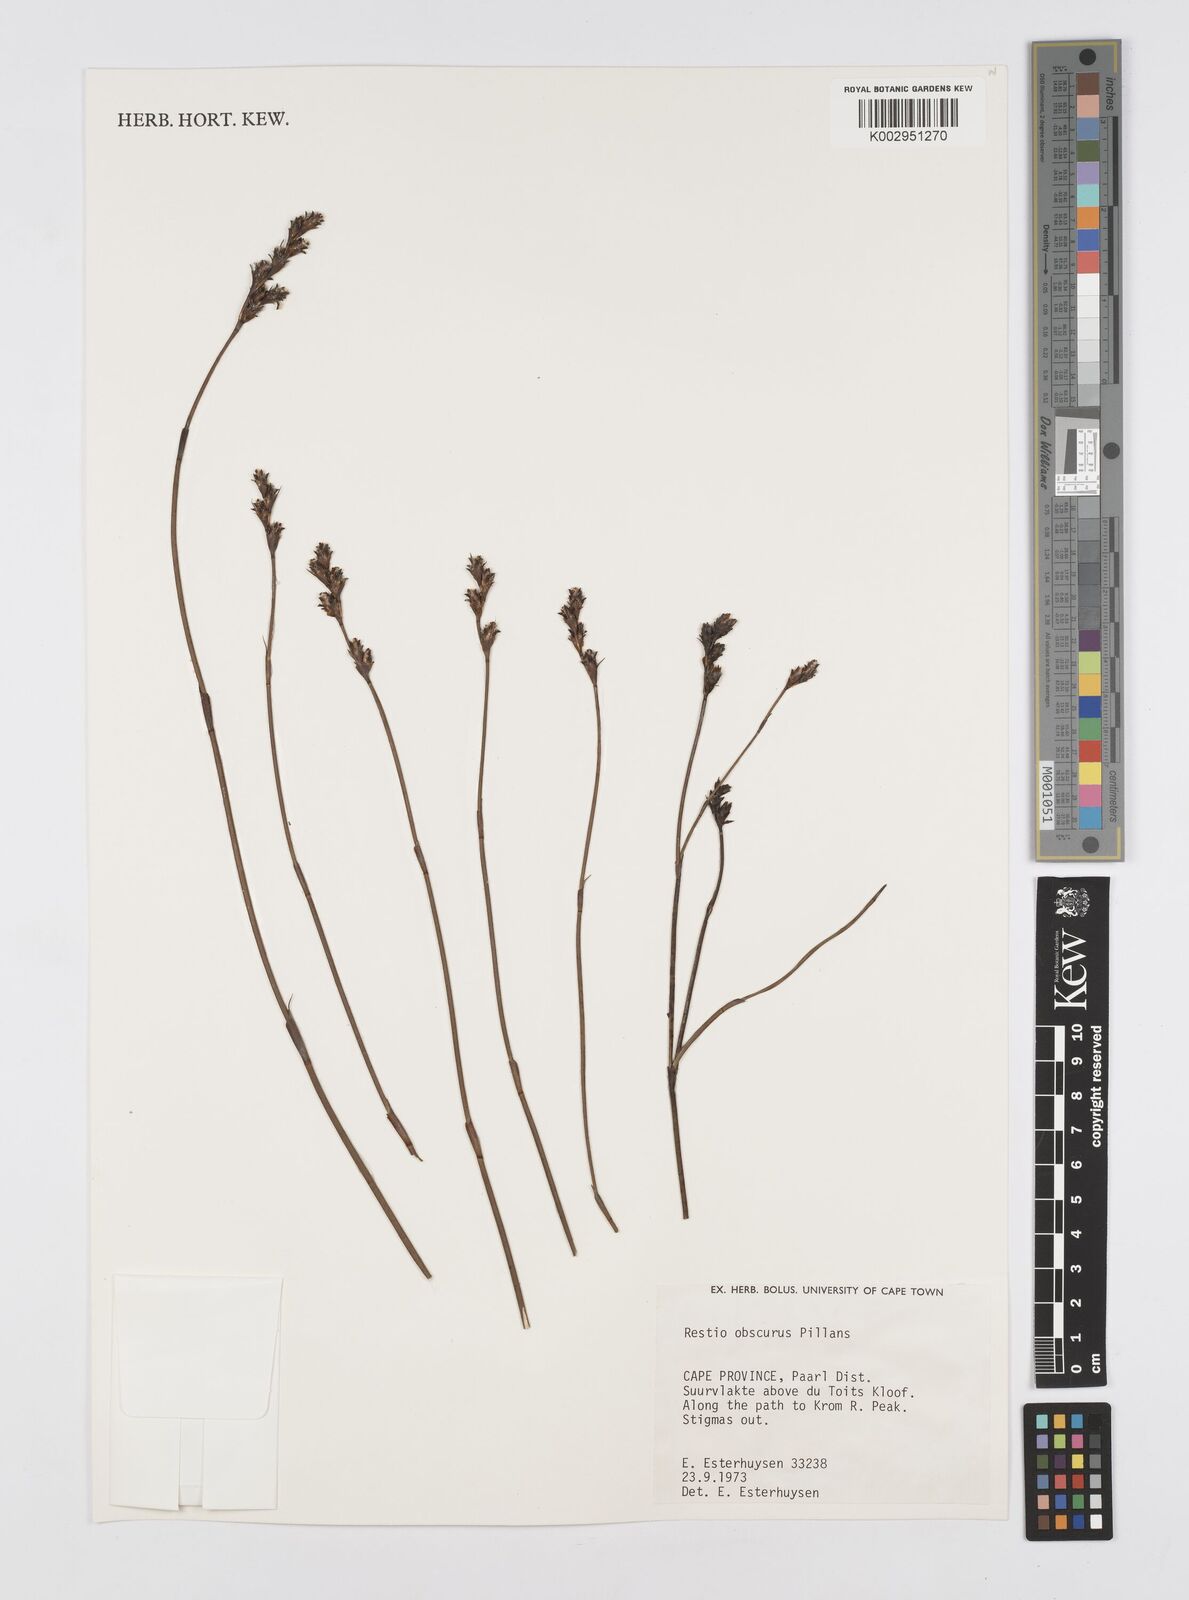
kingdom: Plantae
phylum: Tracheophyta
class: Liliopsida
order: Poales
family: Restionaceae
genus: Restio
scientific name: Restio obscurus
